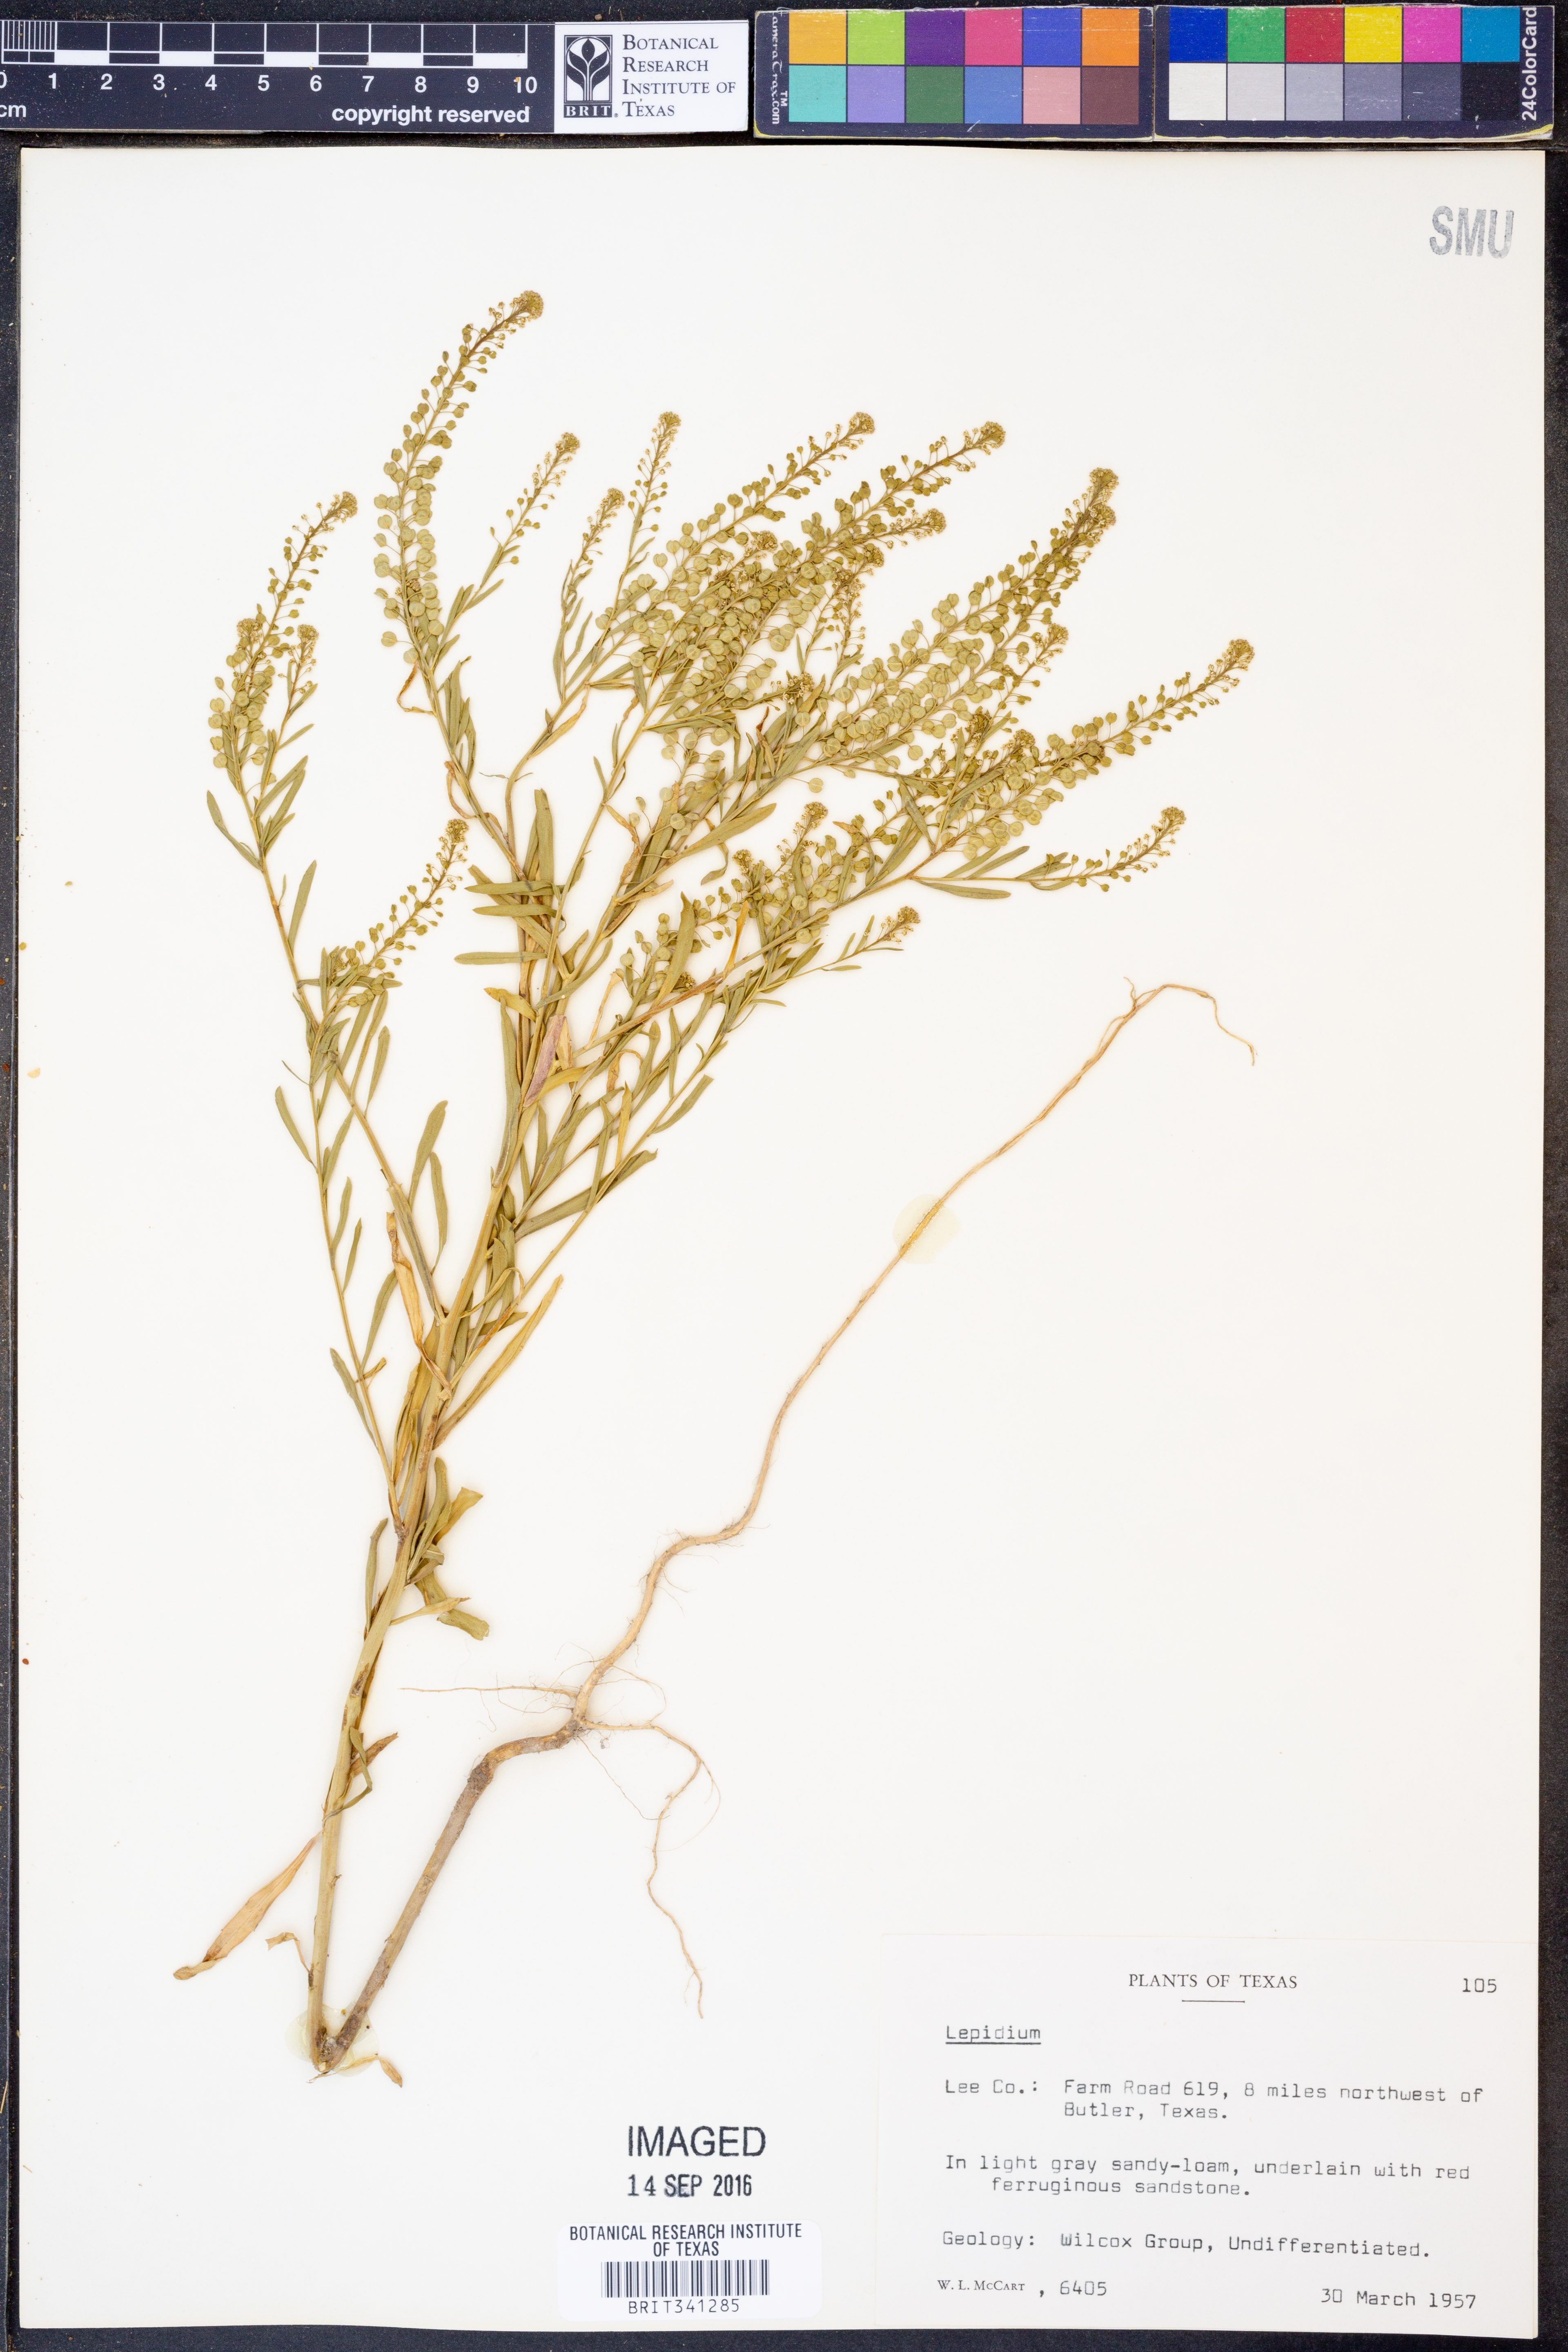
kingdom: Plantae
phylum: Tracheophyta
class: Magnoliopsida
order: Brassicales
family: Brassicaceae
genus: Lepidium
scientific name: Lepidium
